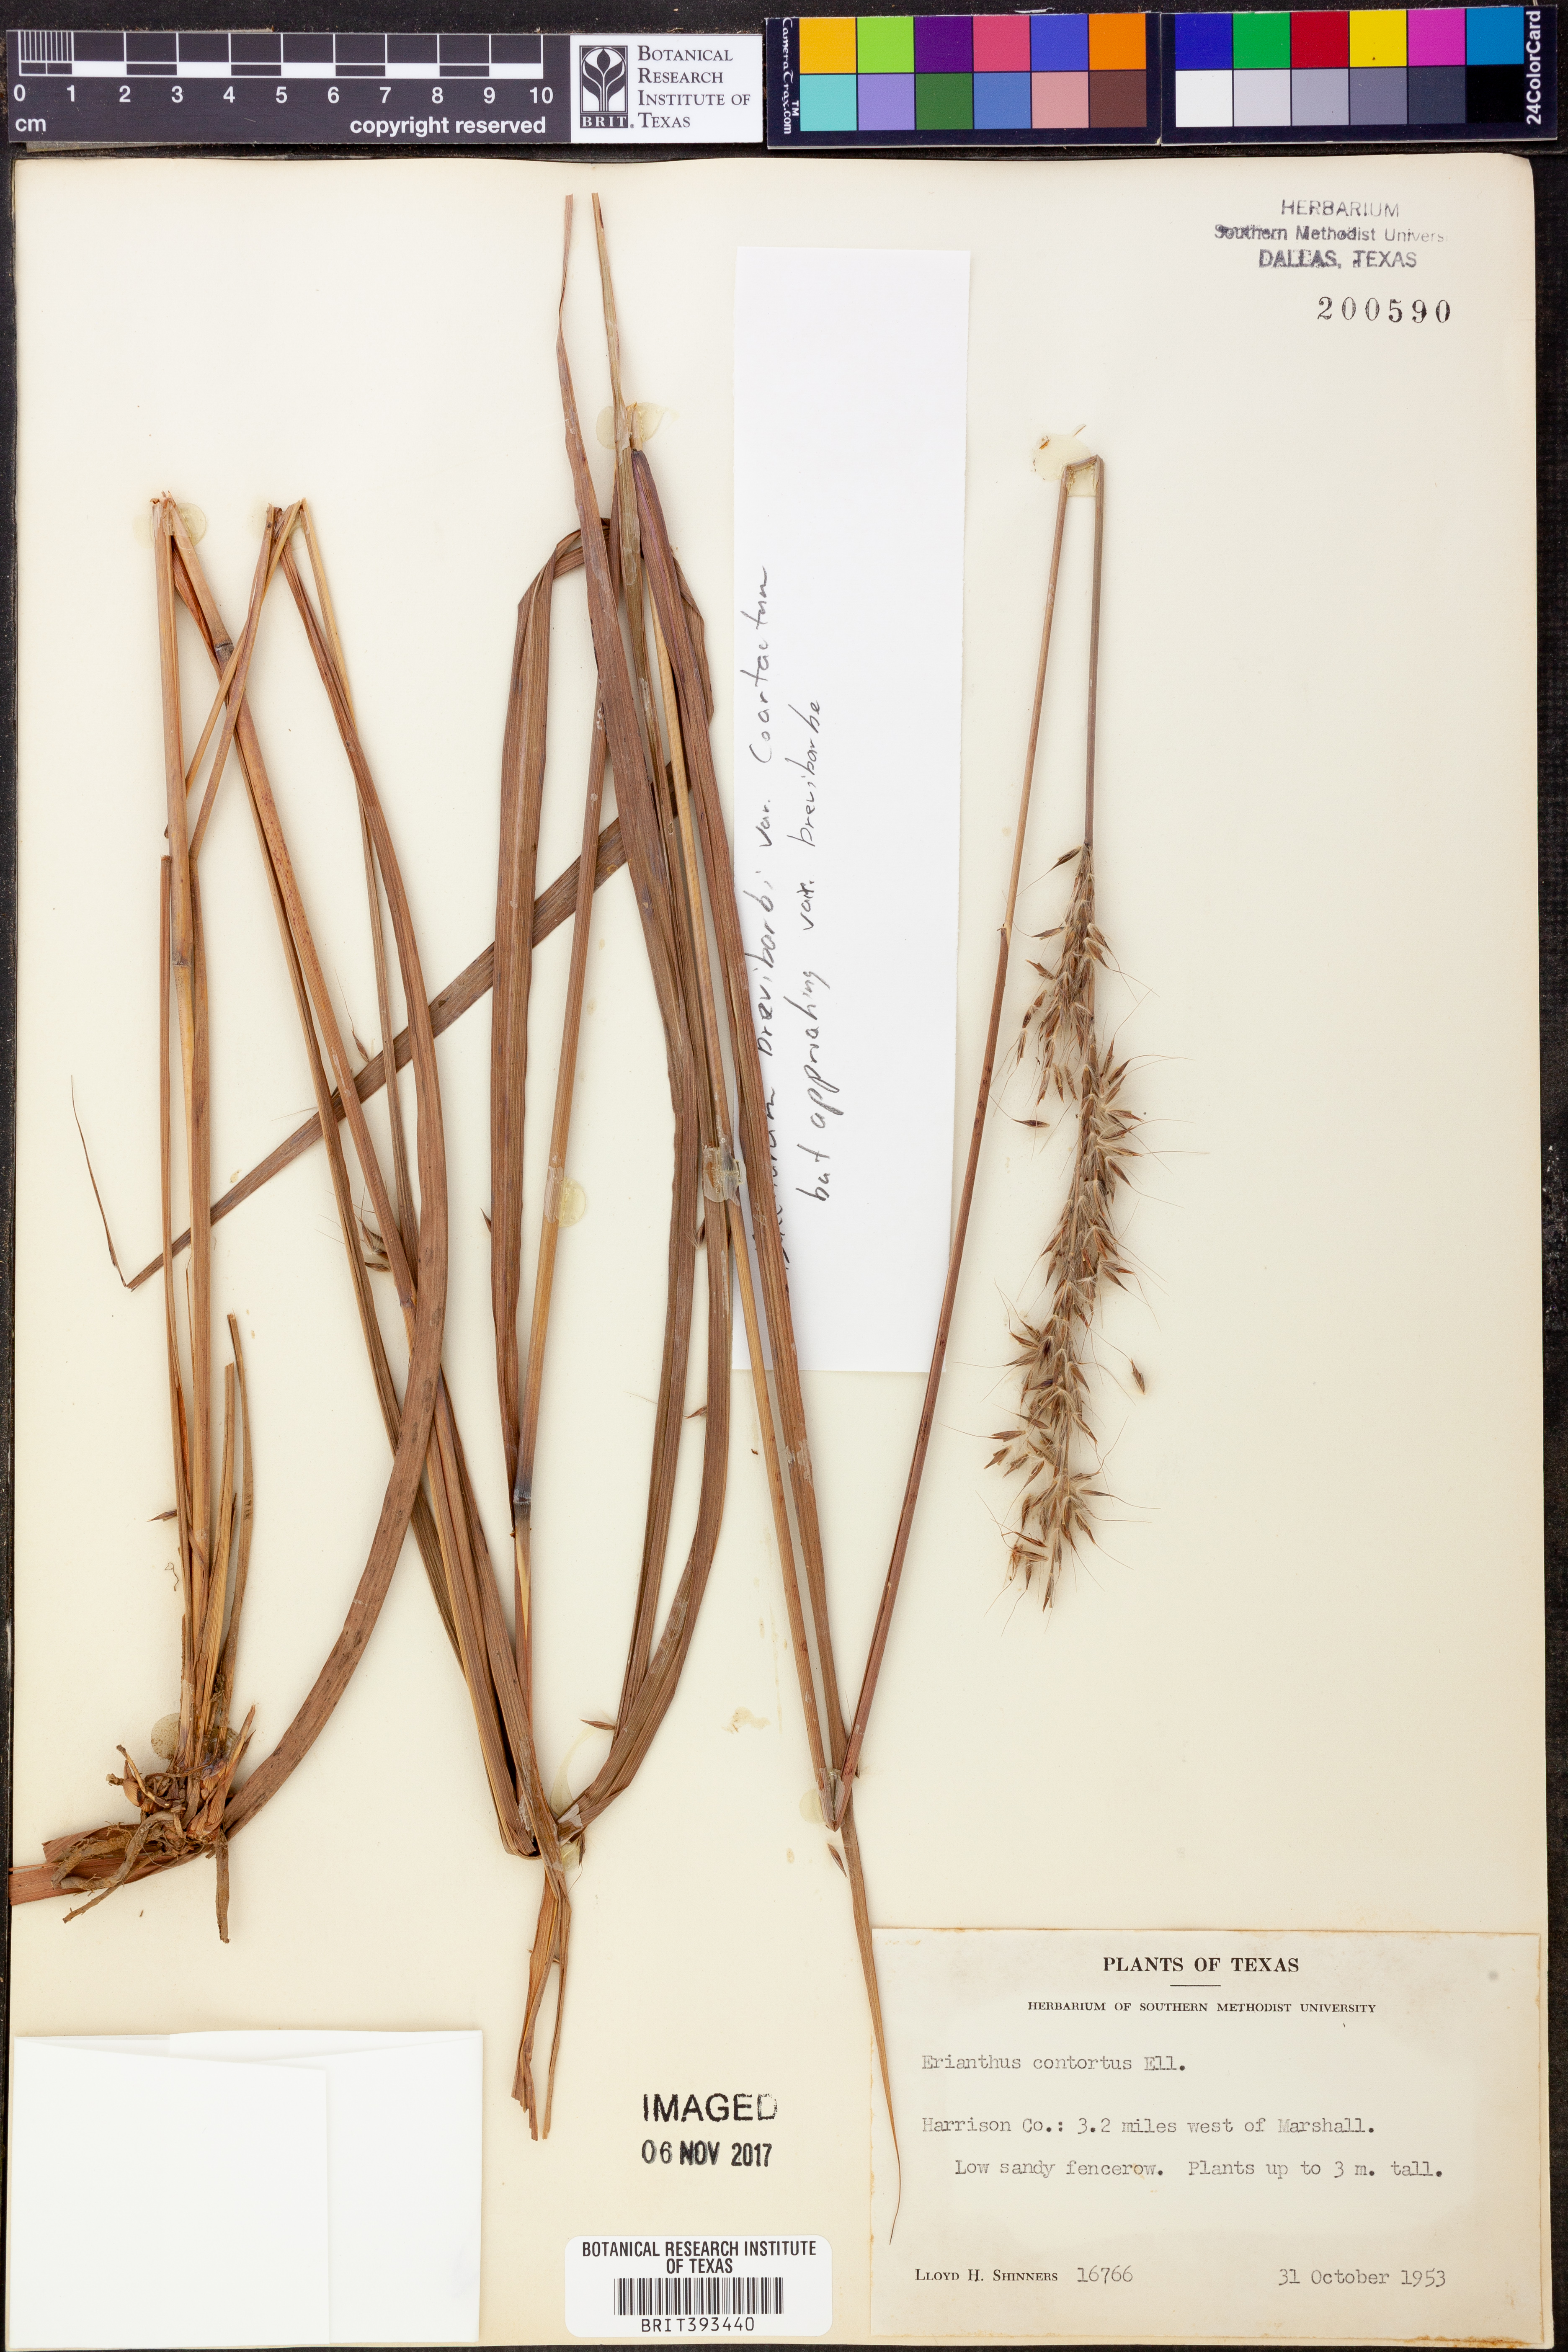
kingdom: Plantae
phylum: Tracheophyta
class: Liliopsida
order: Poales
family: Poaceae
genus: Erianthus
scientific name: Erianthus contortus
